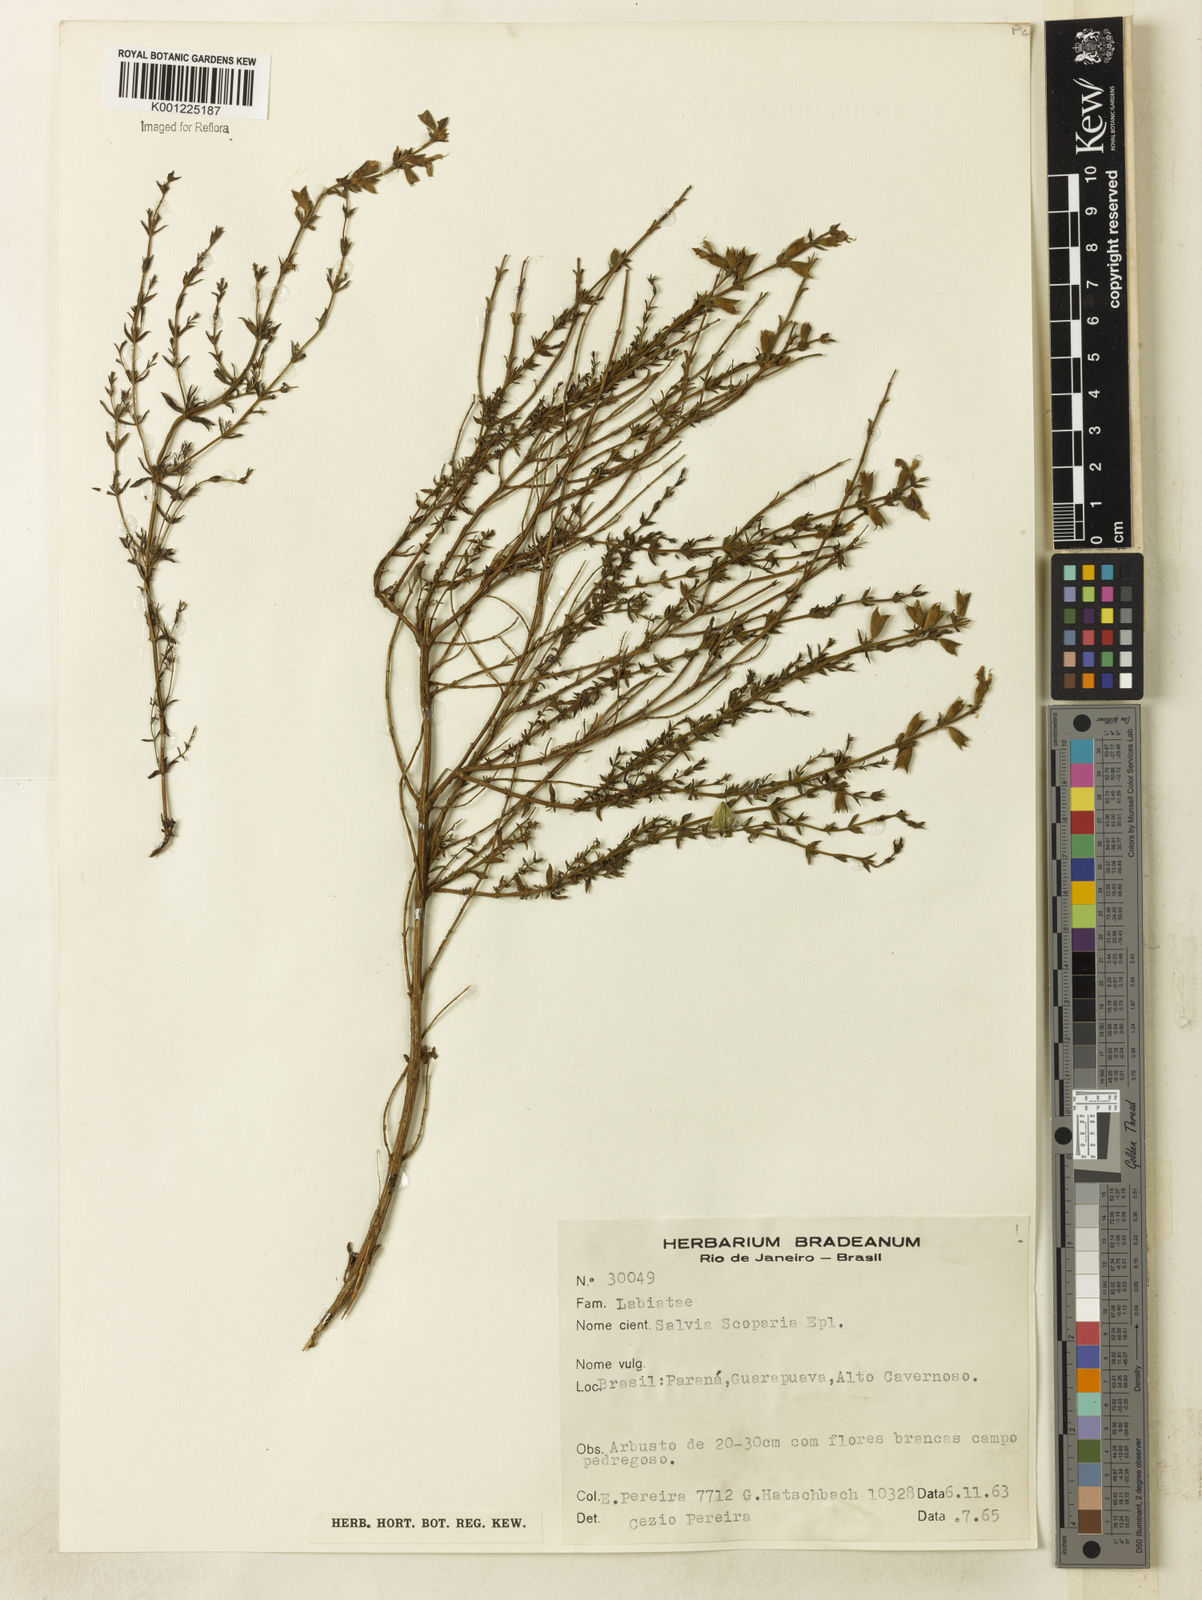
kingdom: Plantae
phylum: Tracheophyta
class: Magnoliopsida
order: Lamiales
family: Lamiaceae
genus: Salvia
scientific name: Salvia scoparia
